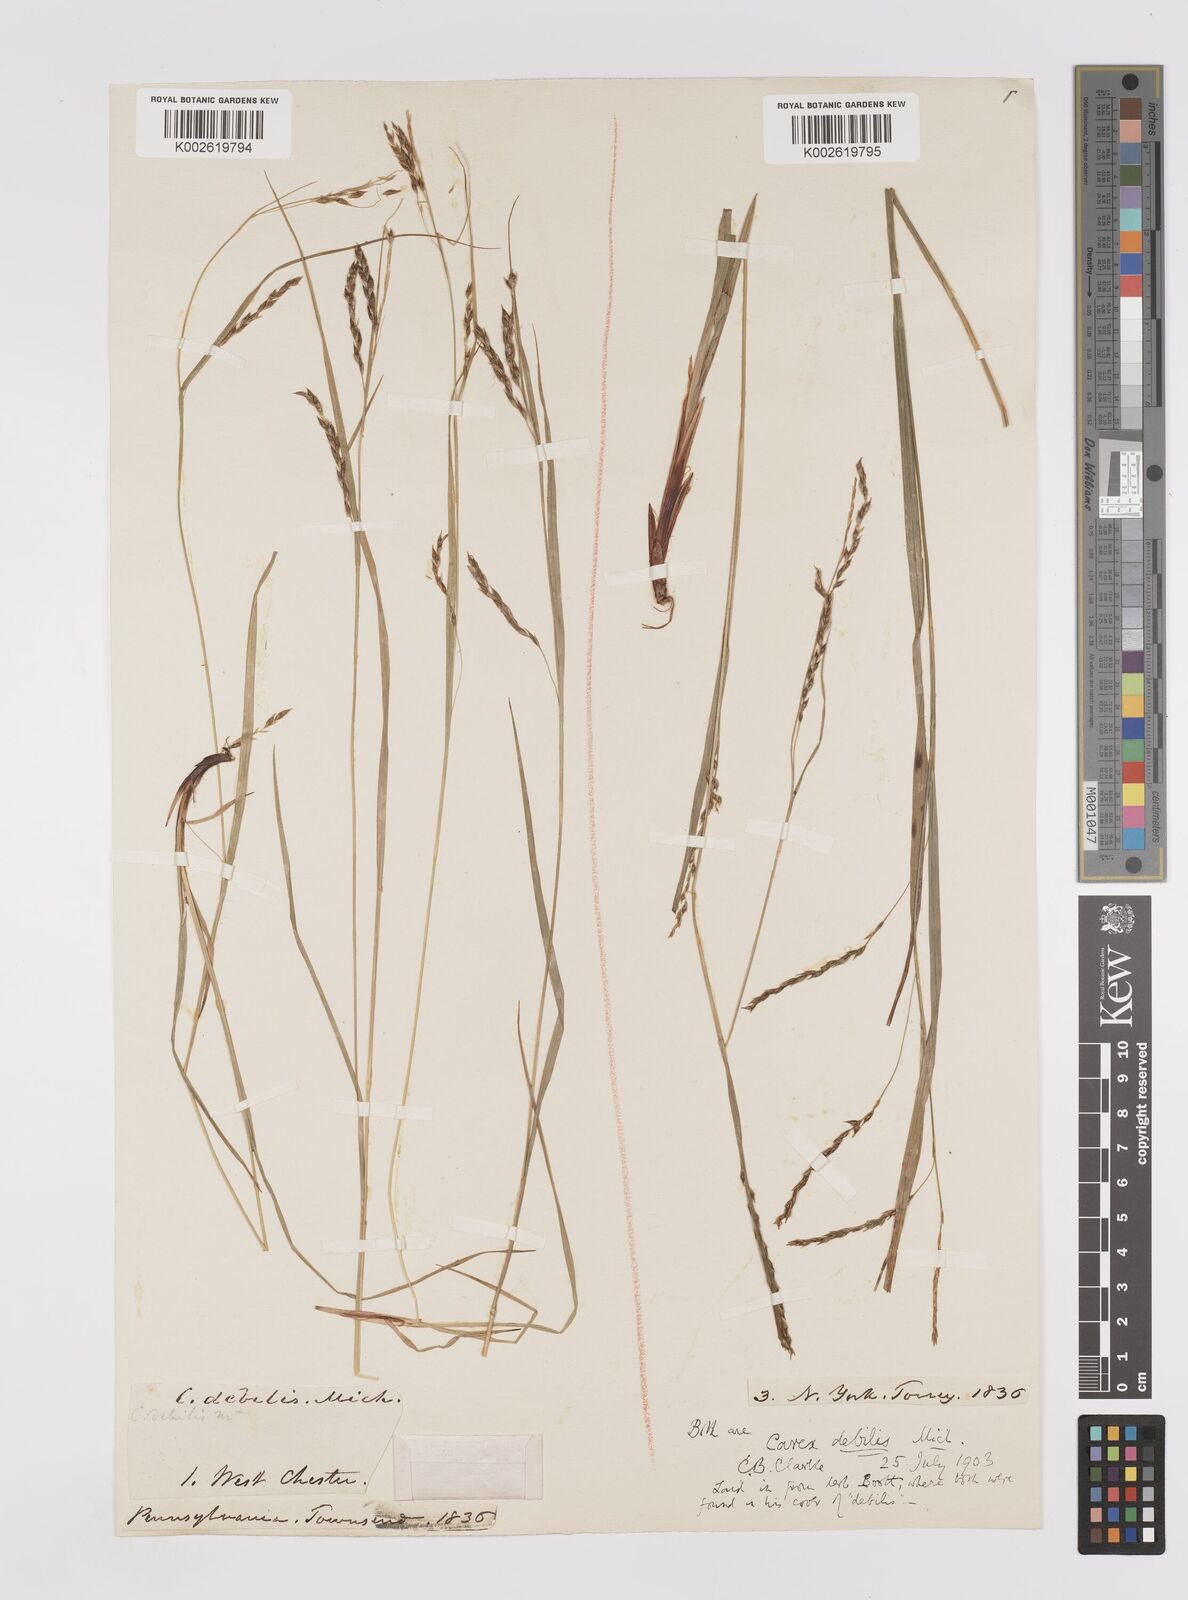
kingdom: Plantae
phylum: Tracheophyta
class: Liliopsida
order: Poales
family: Cyperaceae
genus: Carex
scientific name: Carex debilis
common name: White-edge sedge
